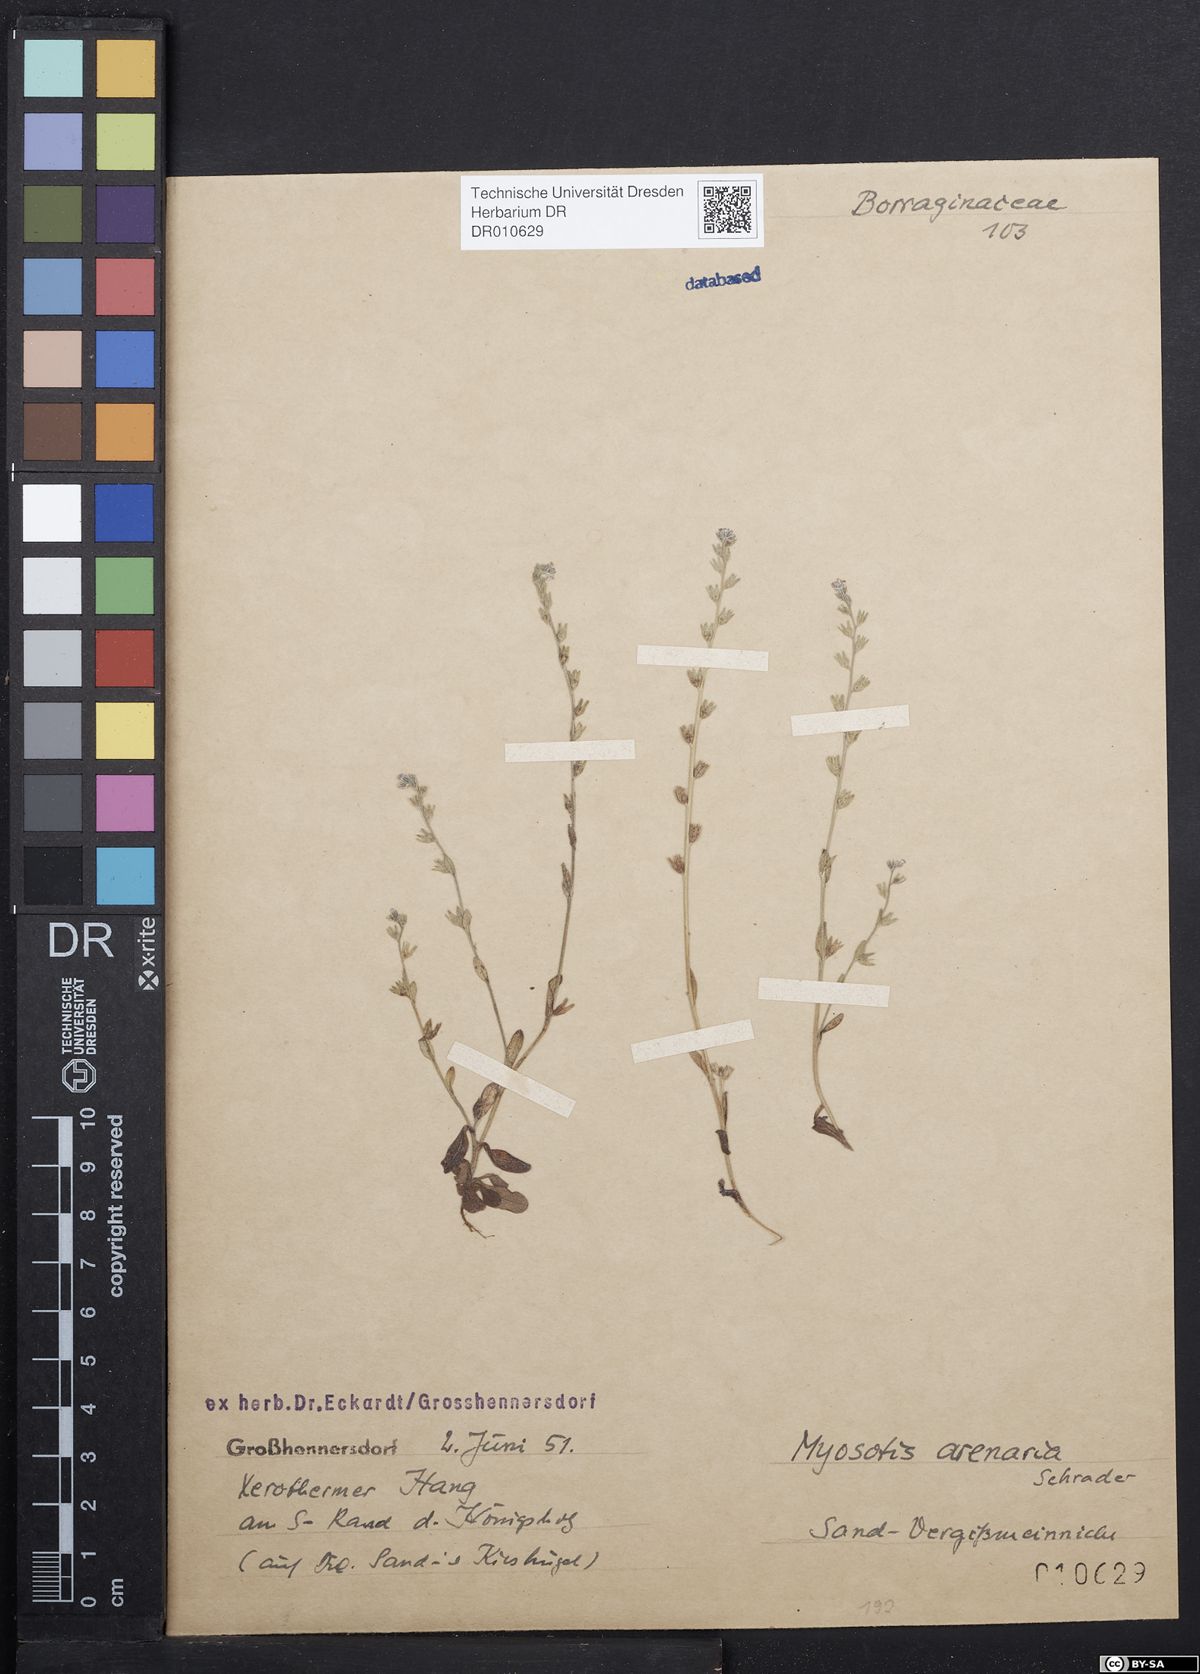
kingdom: Plantae
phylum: Tracheophyta
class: Magnoliopsida
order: Boraginales
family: Boraginaceae
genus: Myosotis
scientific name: Myosotis stricta
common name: Strict forget-me-not
